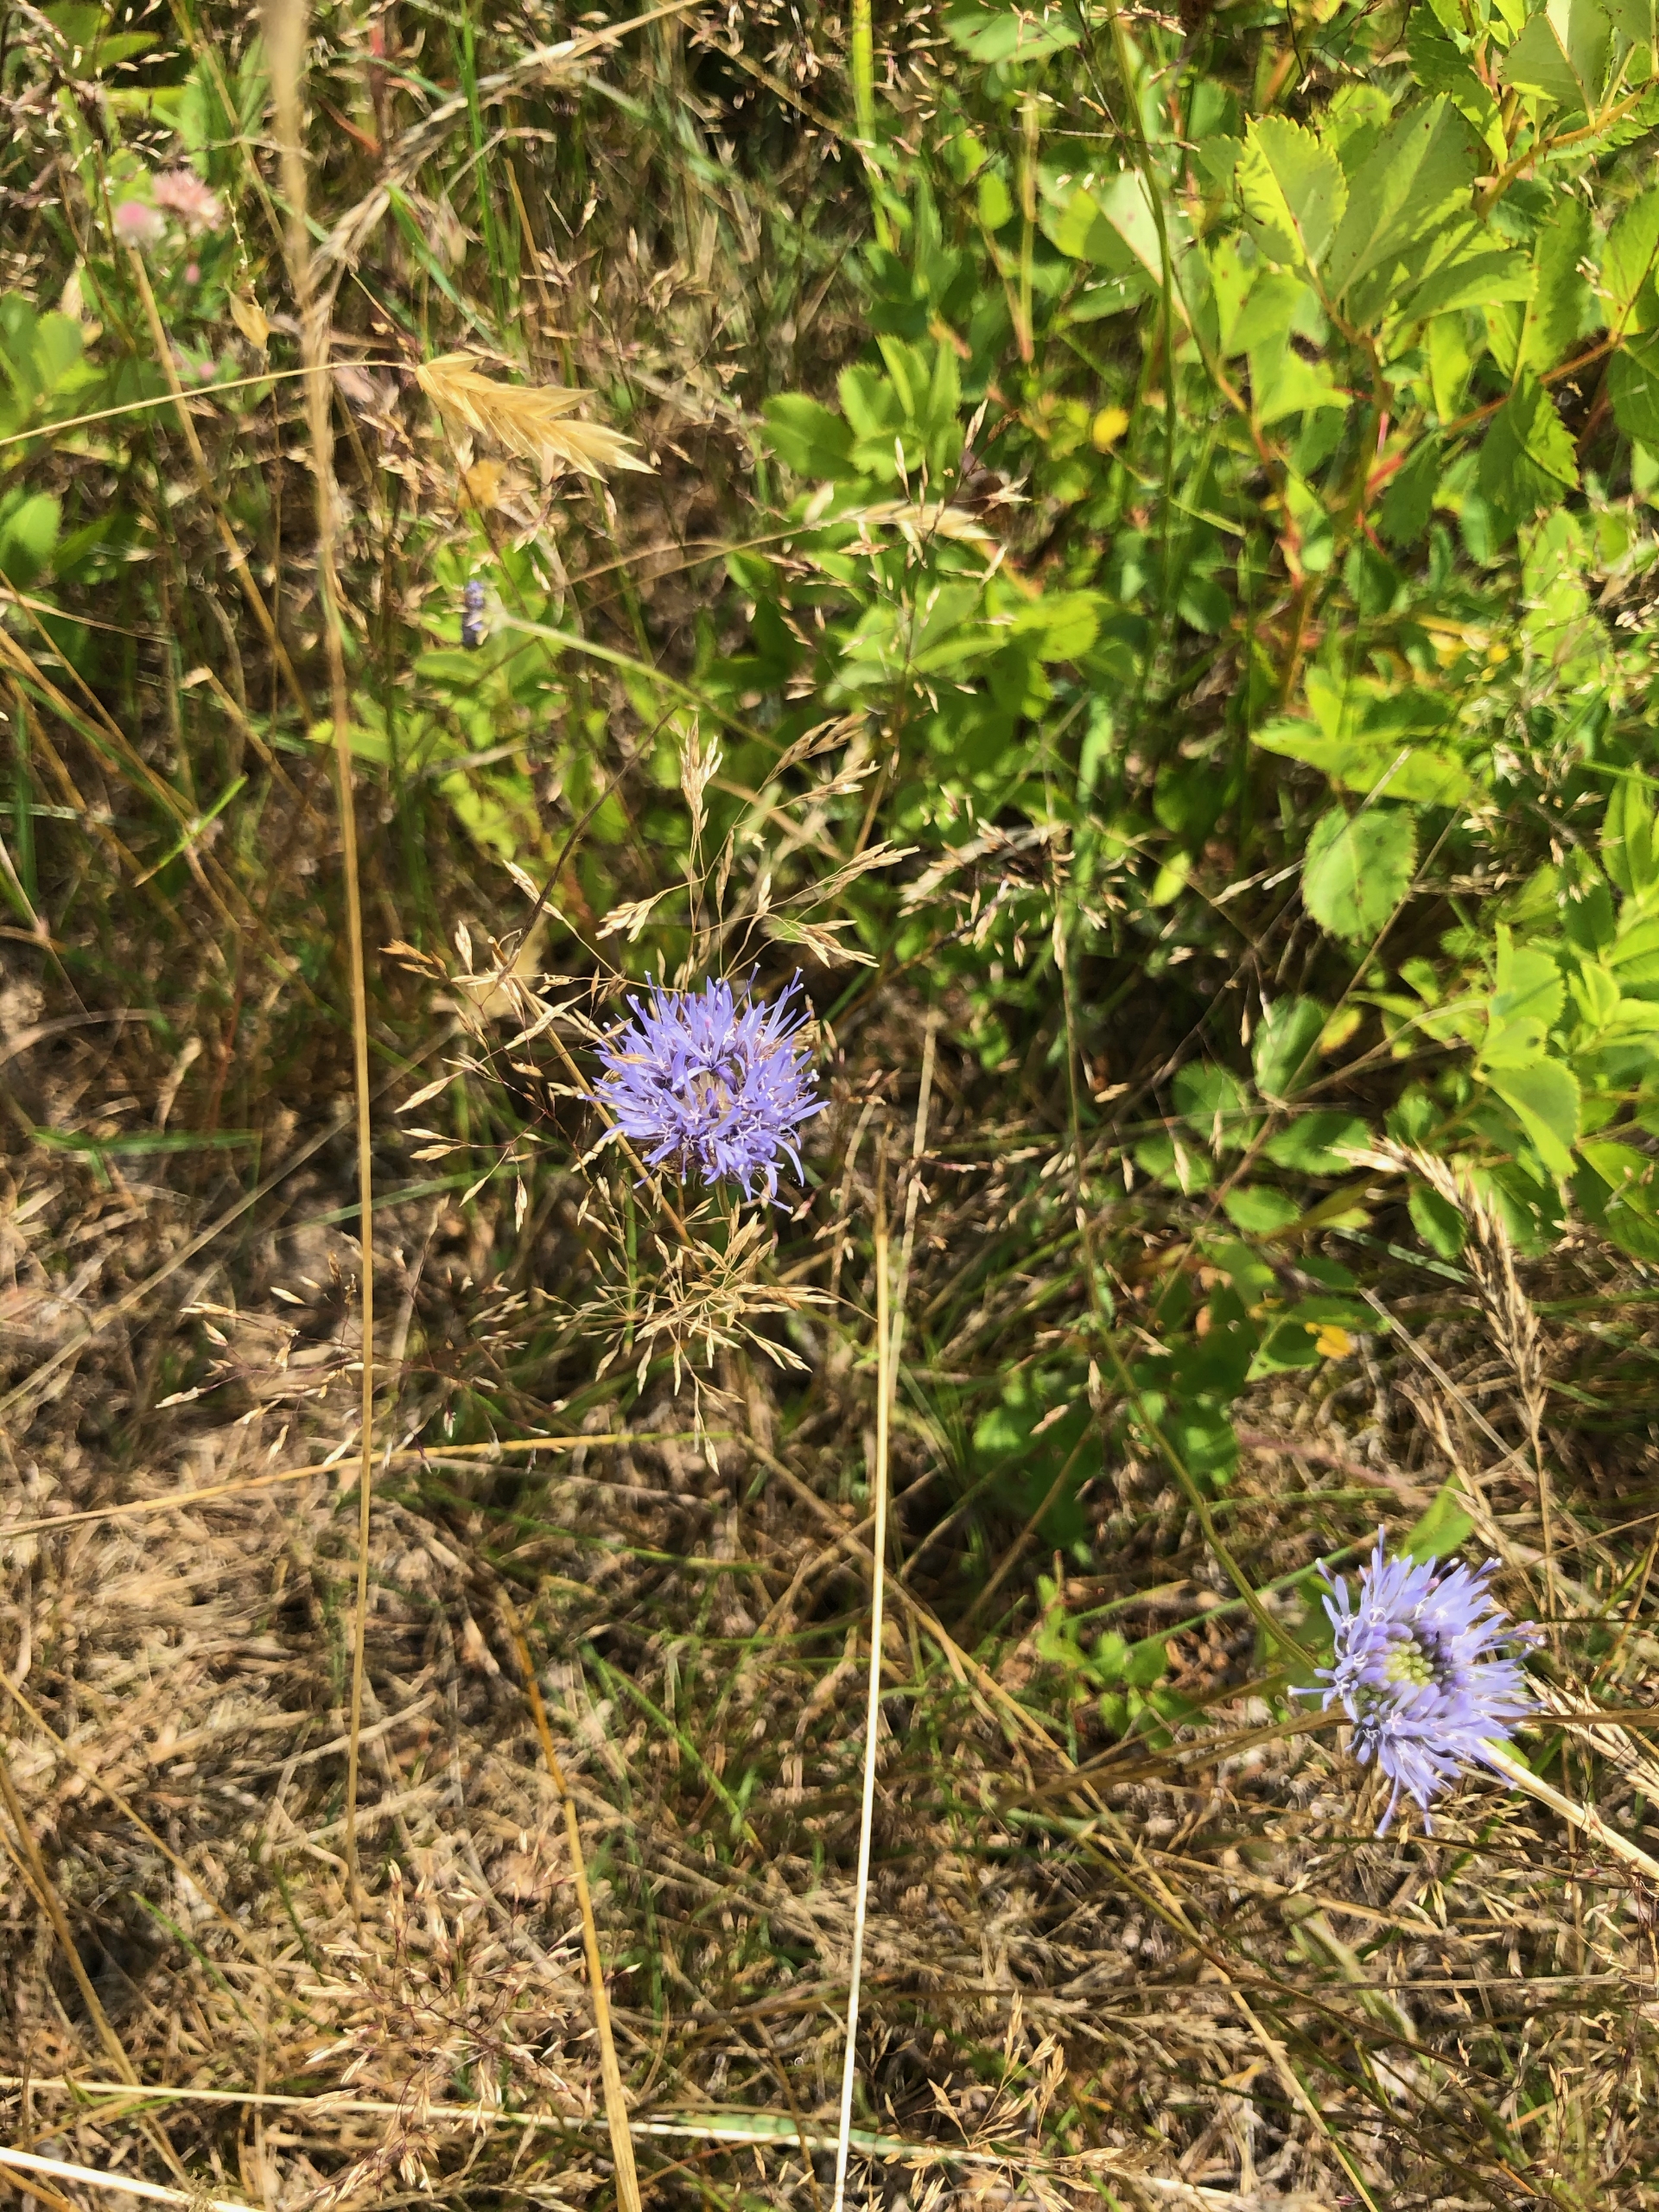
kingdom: Plantae
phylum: Tracheophyta
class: Magnoliopsida
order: Asterales
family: Campanulaceae
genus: Jasione
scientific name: Jasione montana
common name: Blåmunke
